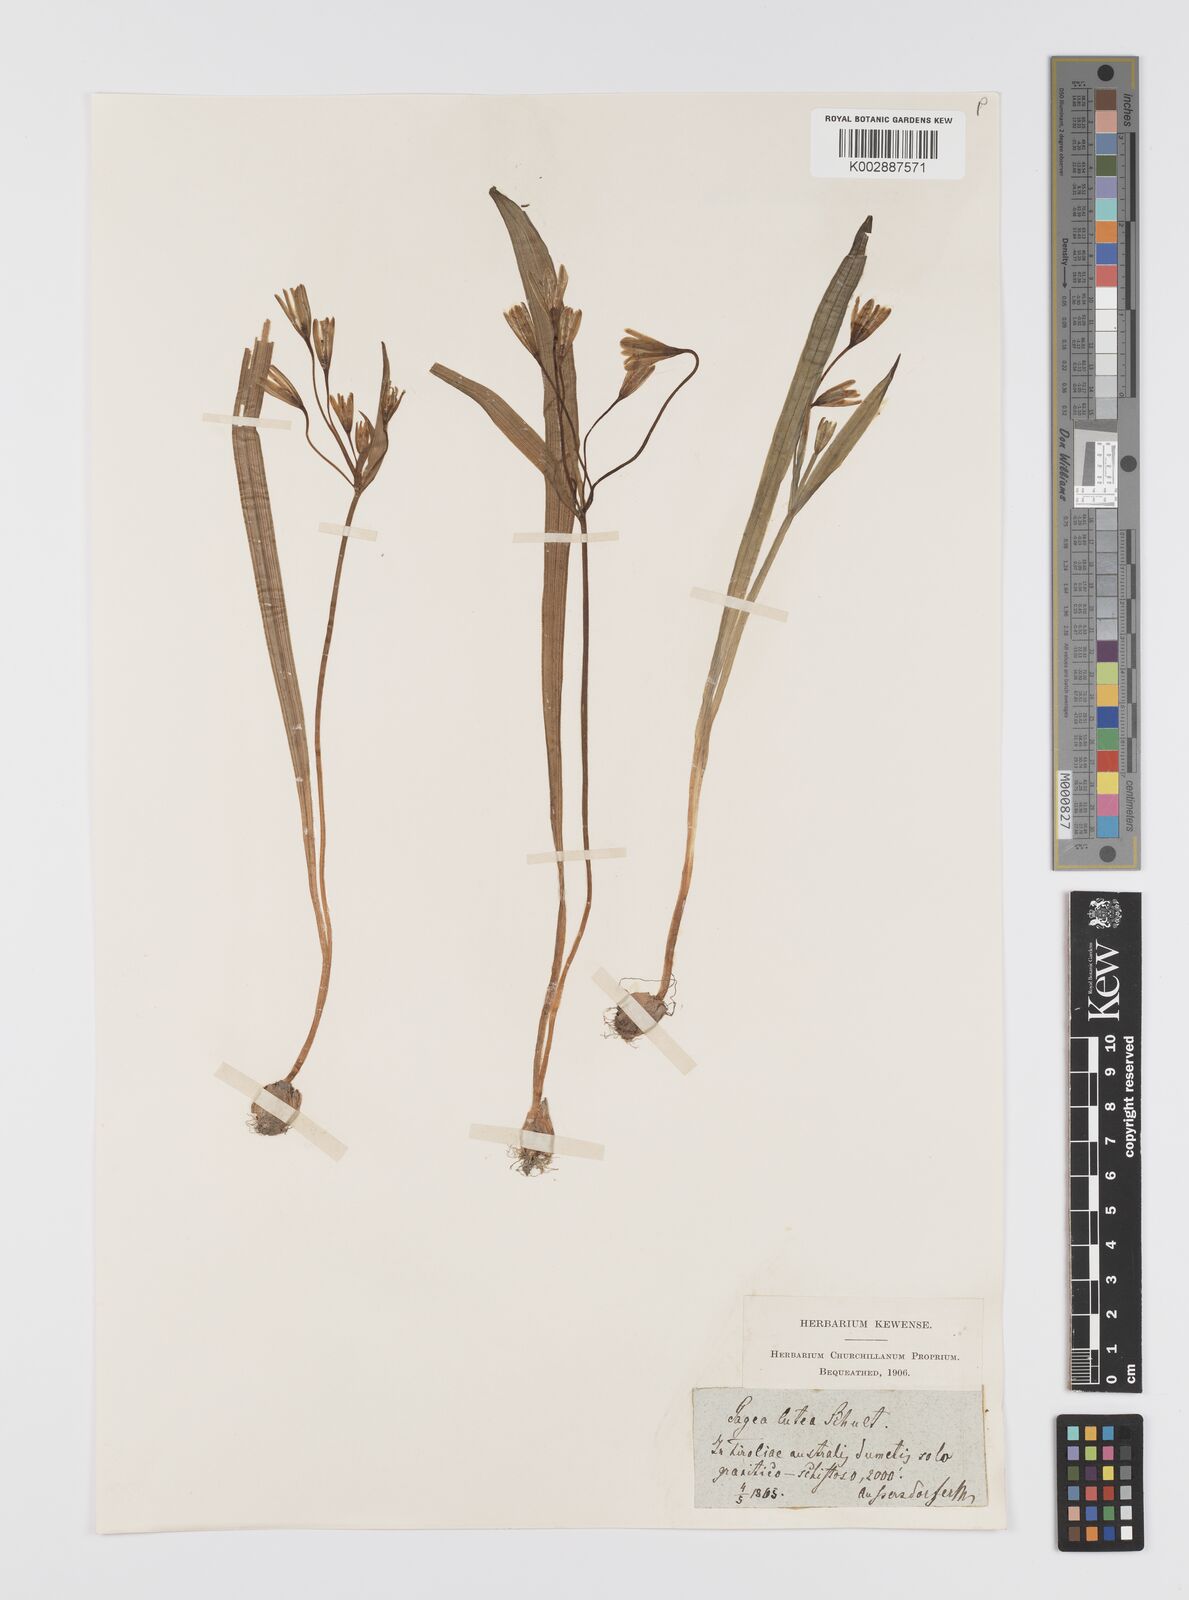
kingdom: Plantae
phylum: Tracheophyta
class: Liliopsida
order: Liliales
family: Liliaceae
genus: Gagea
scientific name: Gagea lutea
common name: Yellow star-of-bethlehem
